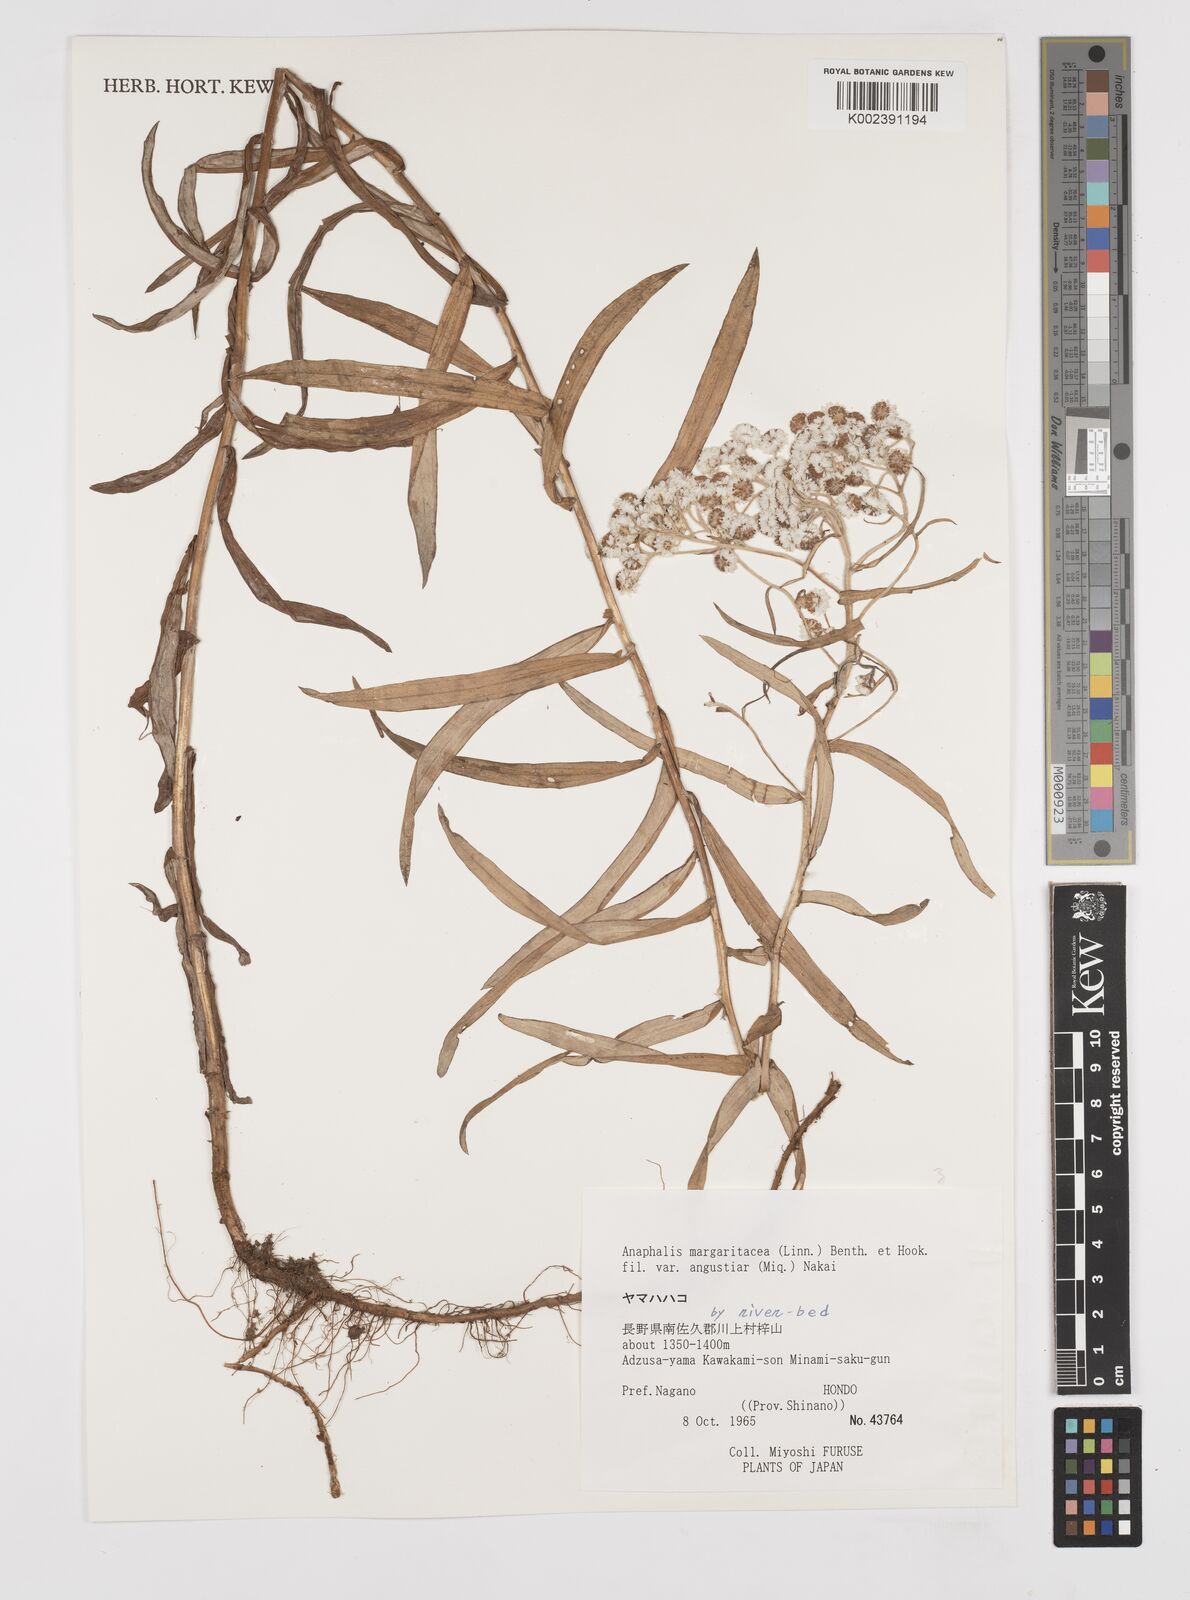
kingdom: Plantae
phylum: Tracheophyta
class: Magnoliopsida
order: Asterales
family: Asteraceae
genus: Anaphalis
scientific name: Anaphalis margaritacea
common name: Pearly everlasting
